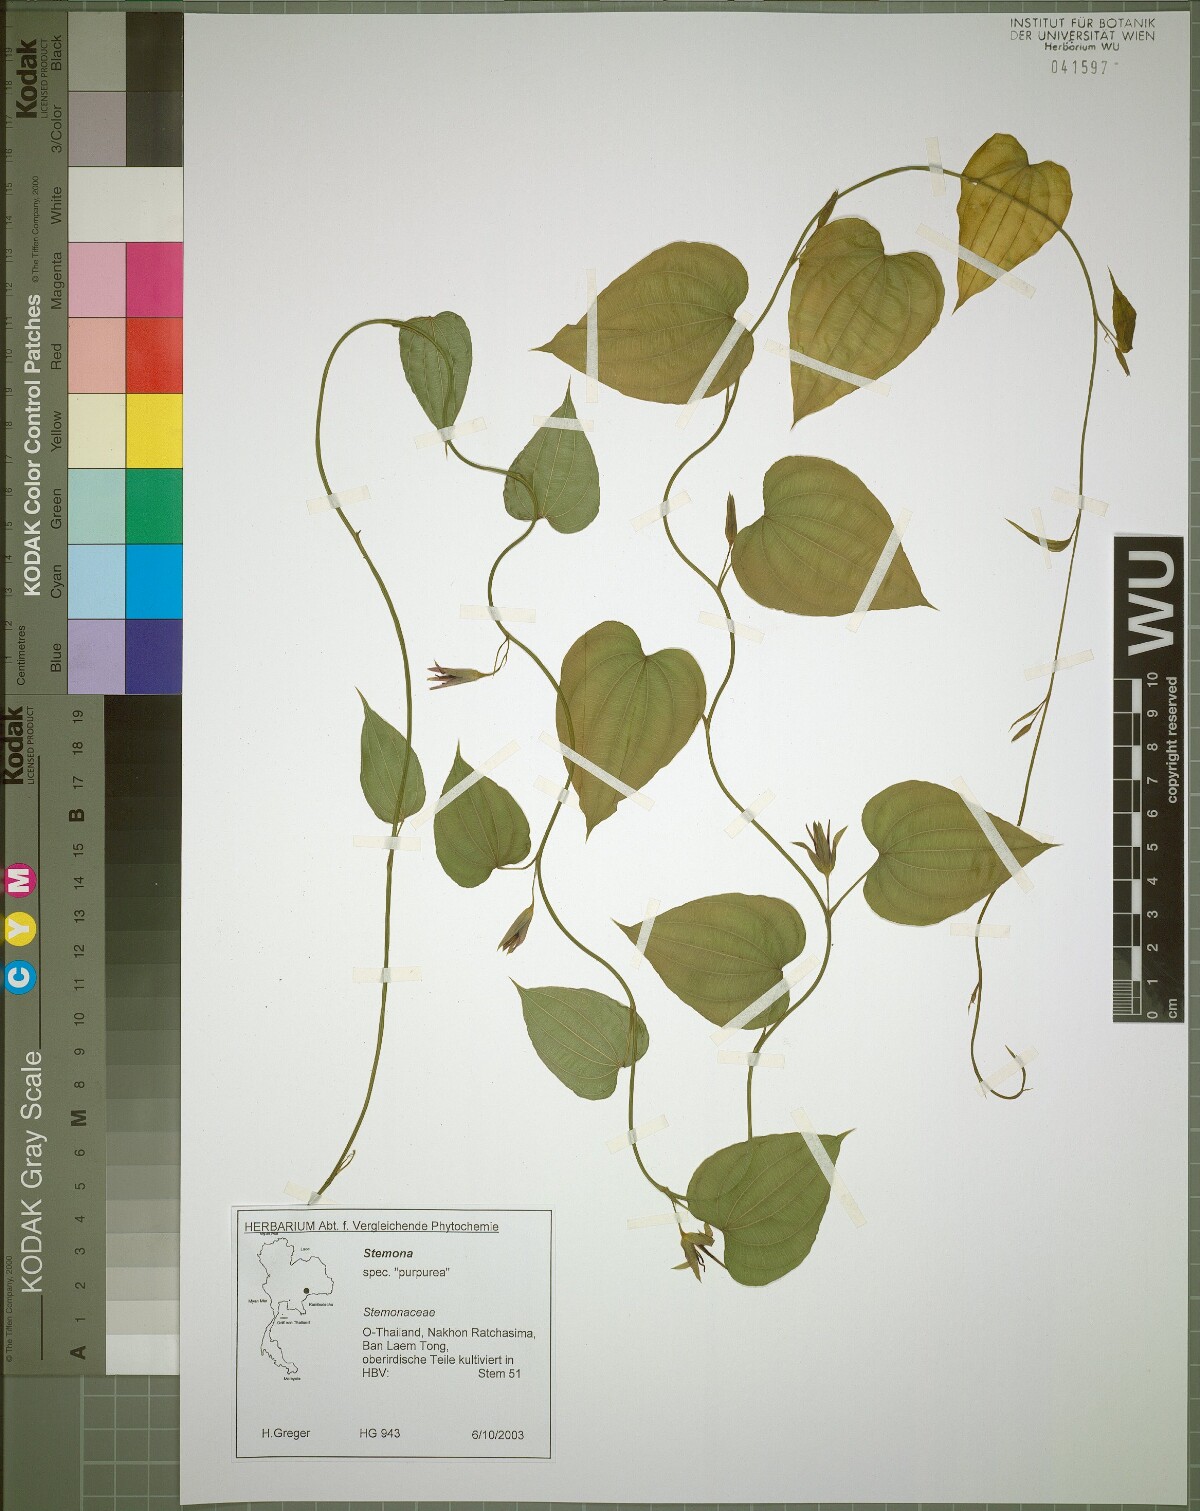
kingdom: Plantae
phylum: Tracheophyta
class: Liliopsida
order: Pandanales
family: Stemonaceae
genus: Stemona
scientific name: Stemona involuta
